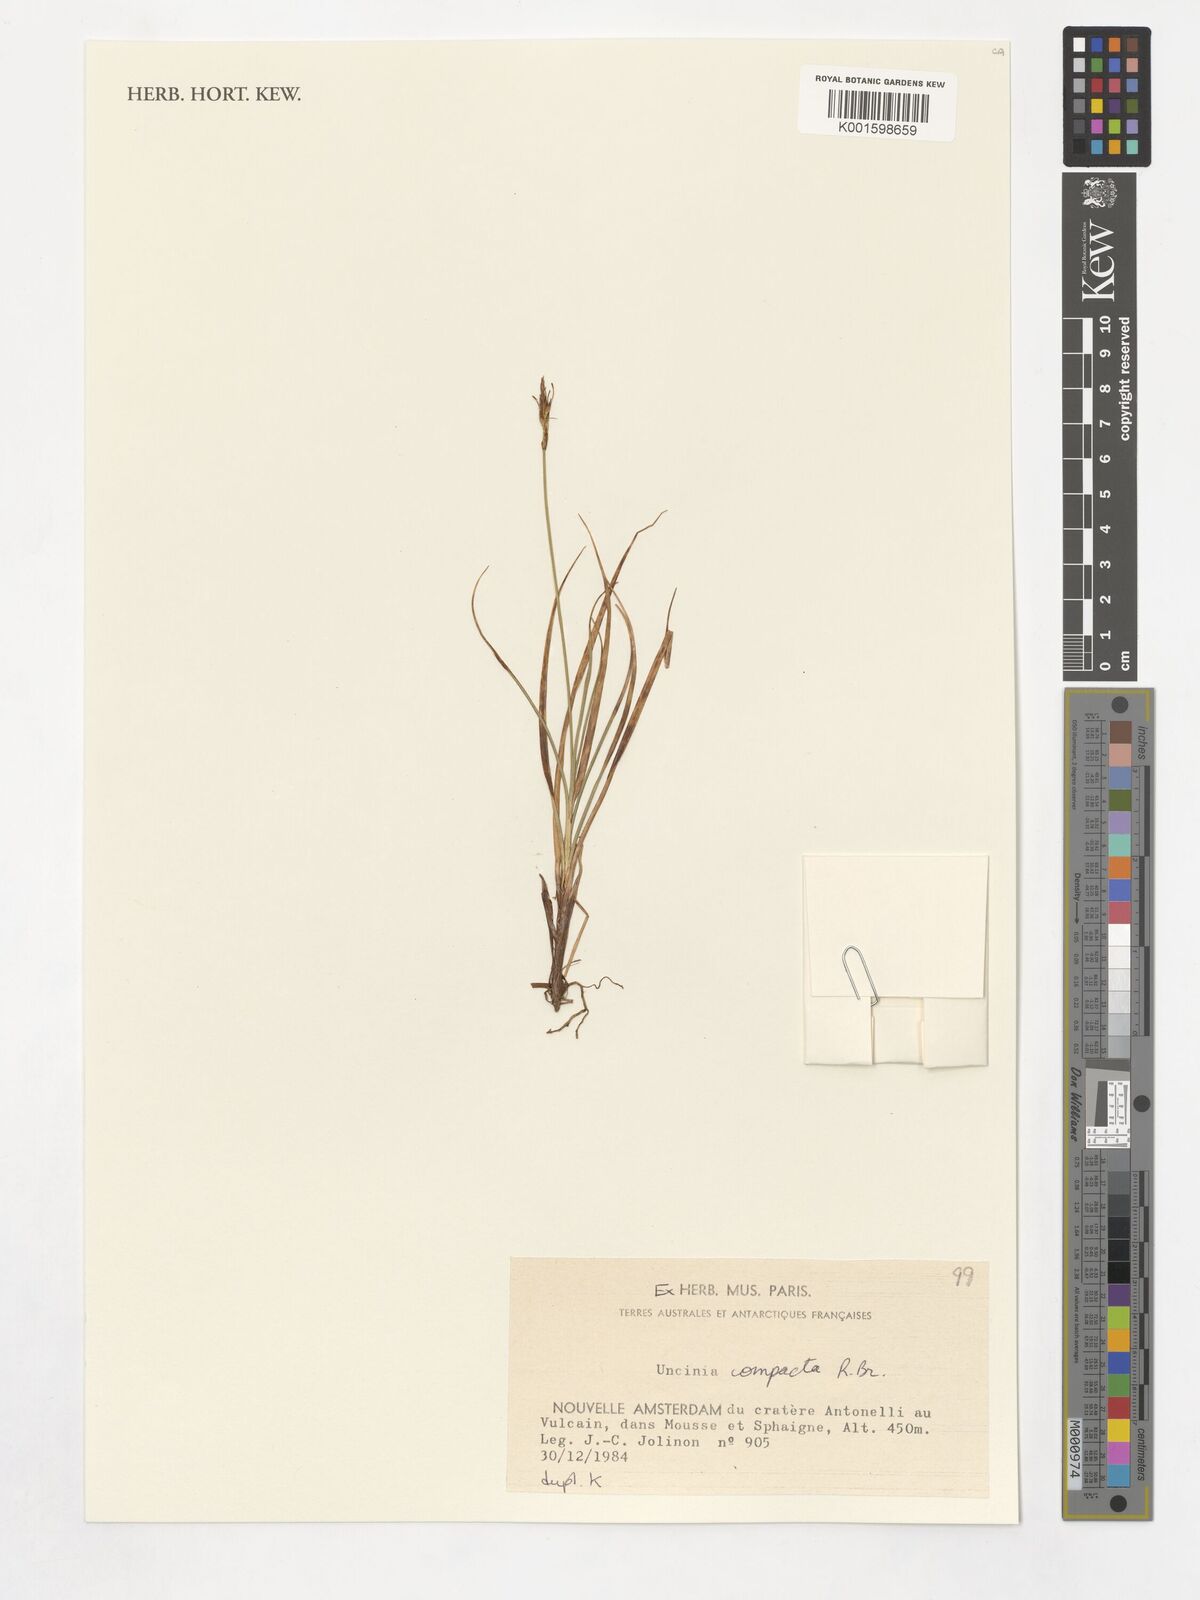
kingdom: Plantae
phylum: Tracheophyta
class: Liliopsida
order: Poales
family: Cyperaceae
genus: Carex
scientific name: Carex austrocompacta
